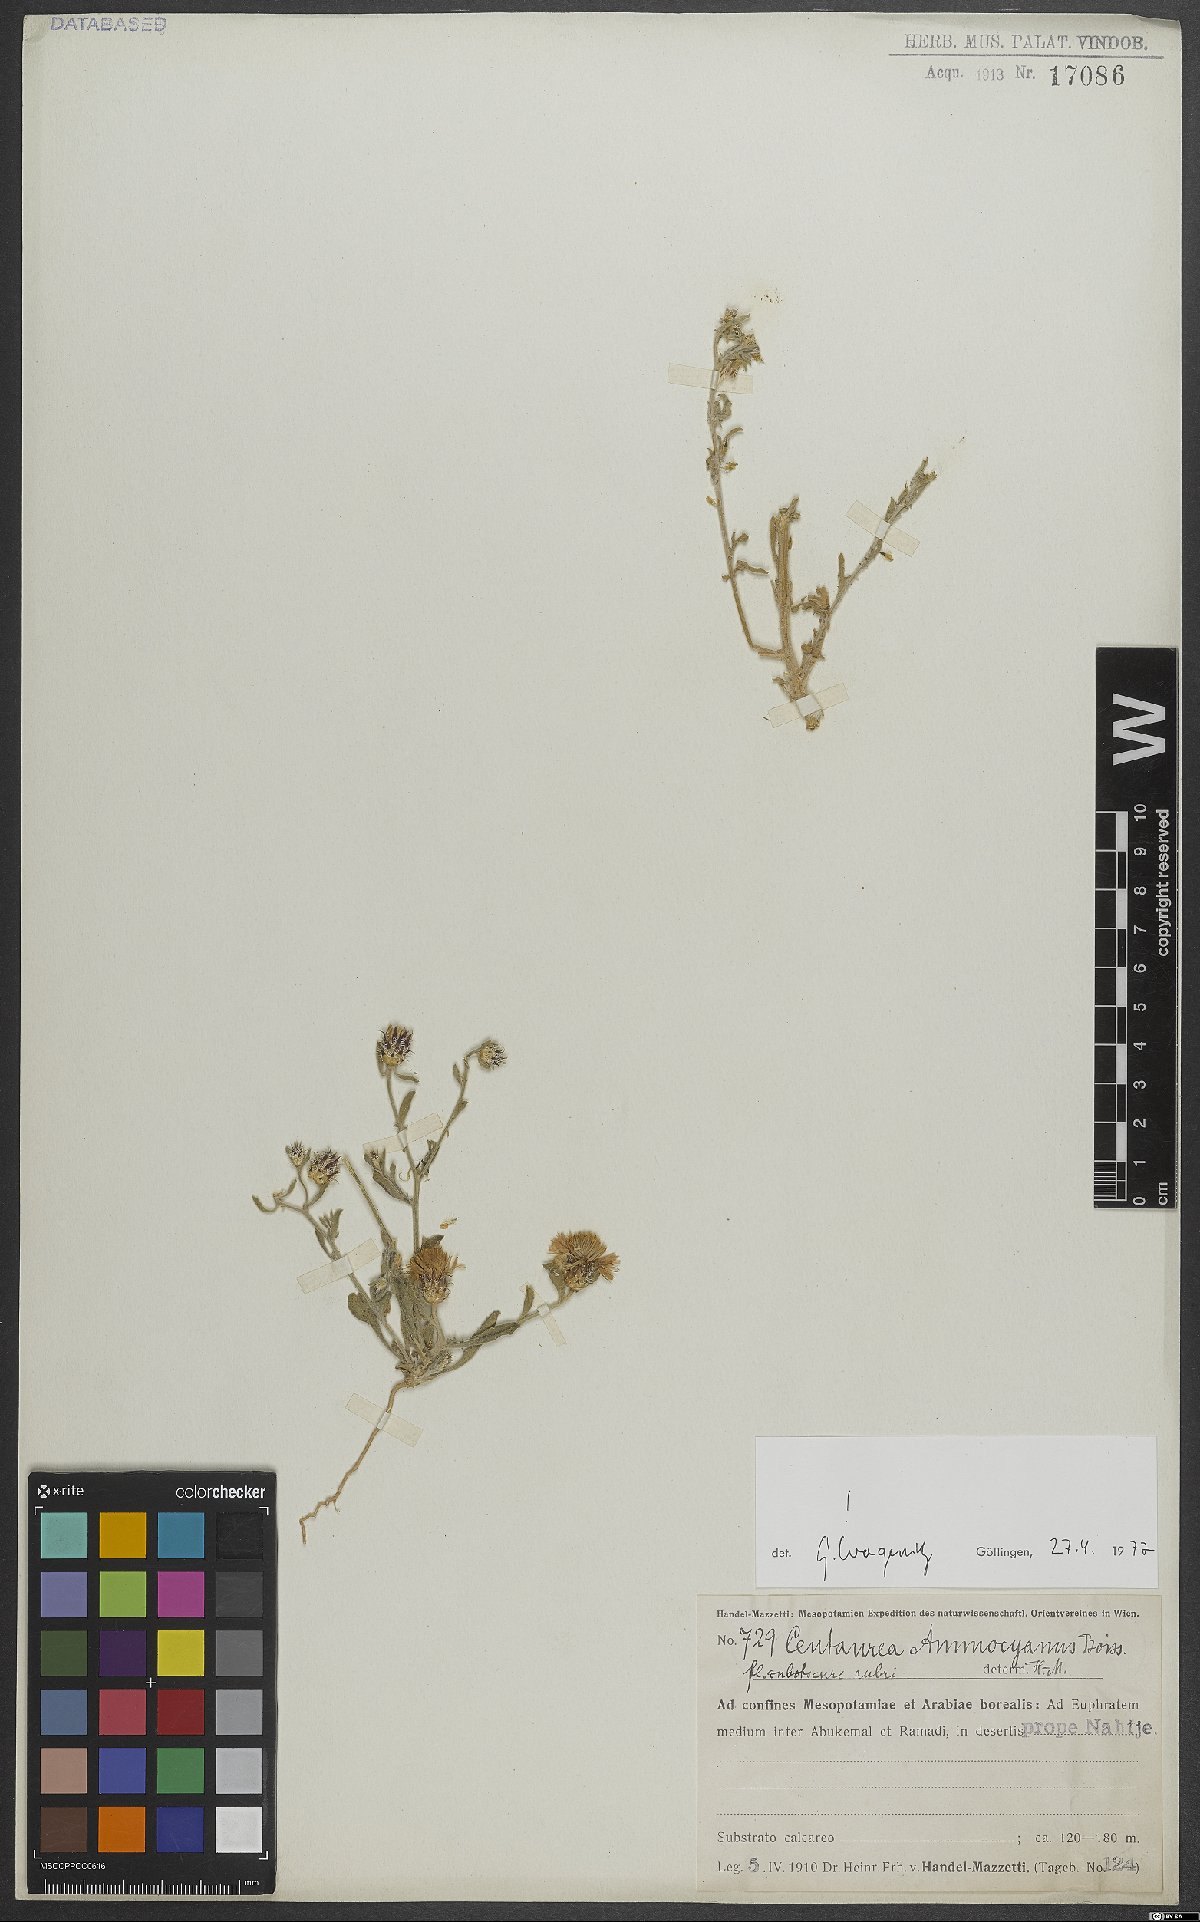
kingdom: Plantae
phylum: Tracheophyta
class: Magnoliopsida
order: Asterales
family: Asteraceae
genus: Centaurea
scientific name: Centaurea ammocyanus
